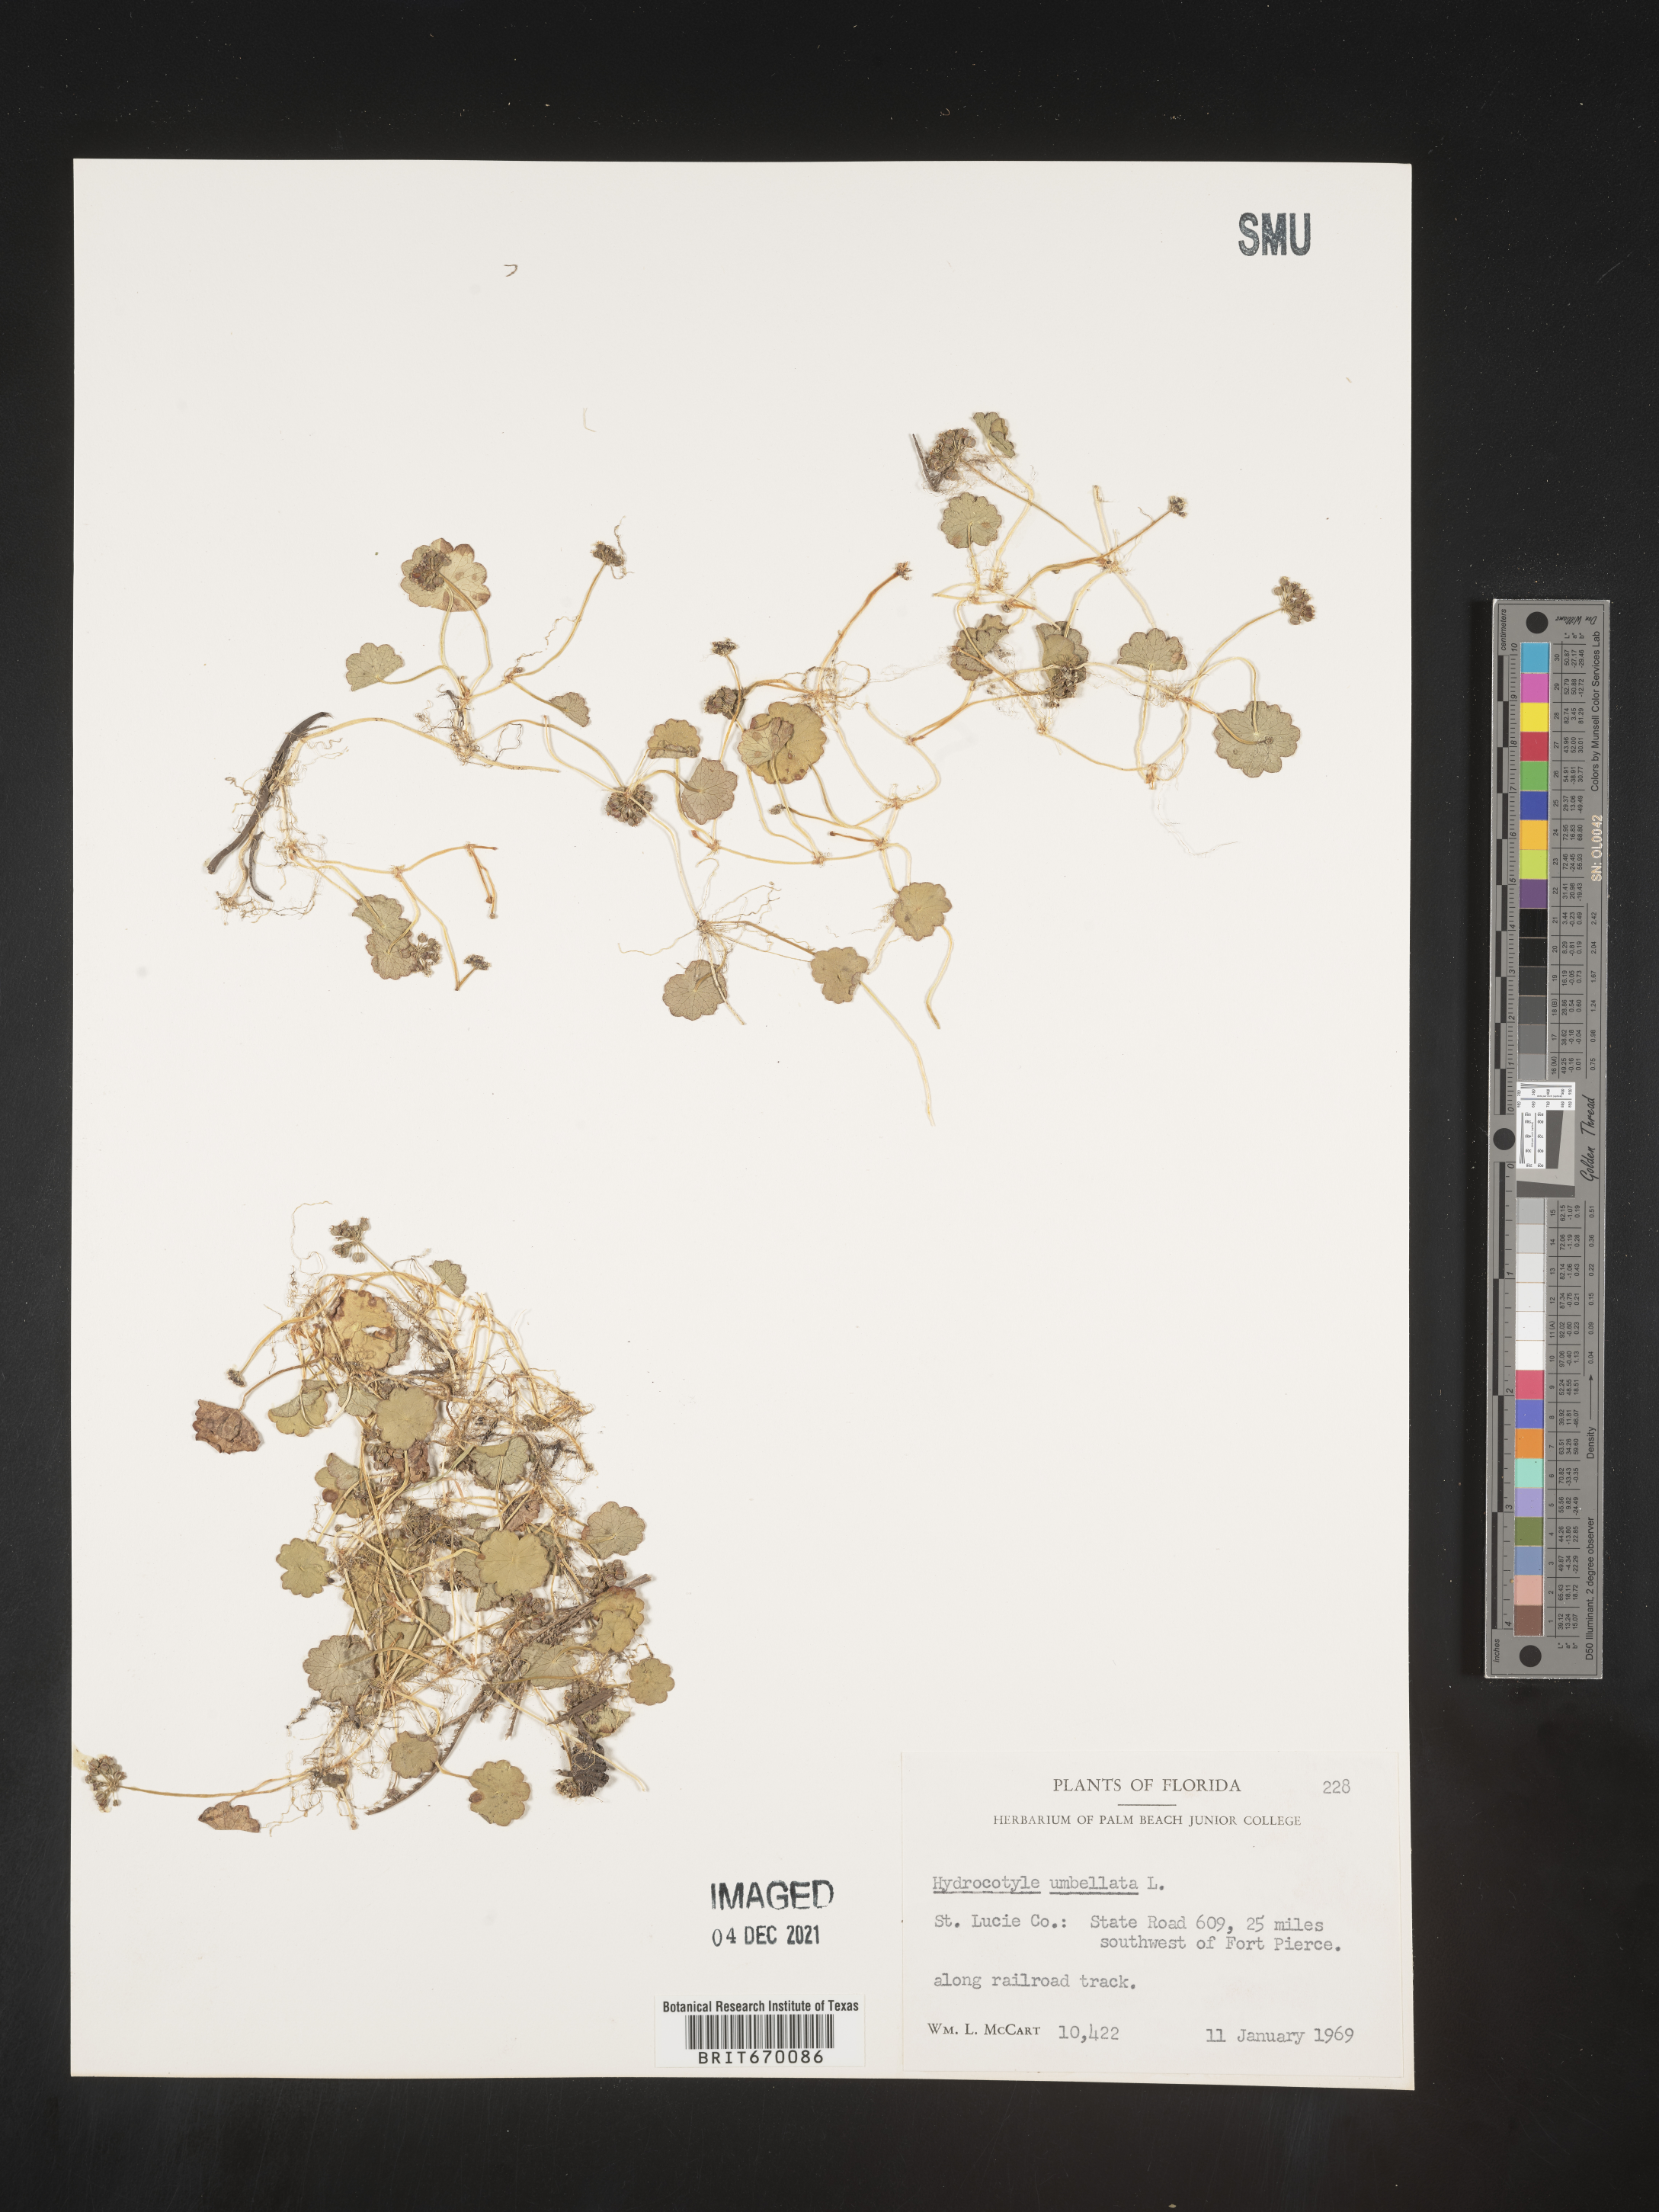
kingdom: Plantae
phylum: Tracheophyta
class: Magnoliopsida
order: Apiales
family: Araliaceae
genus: Hydrocotyle
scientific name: Hydrocotyle umbellata
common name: Water pennywort
